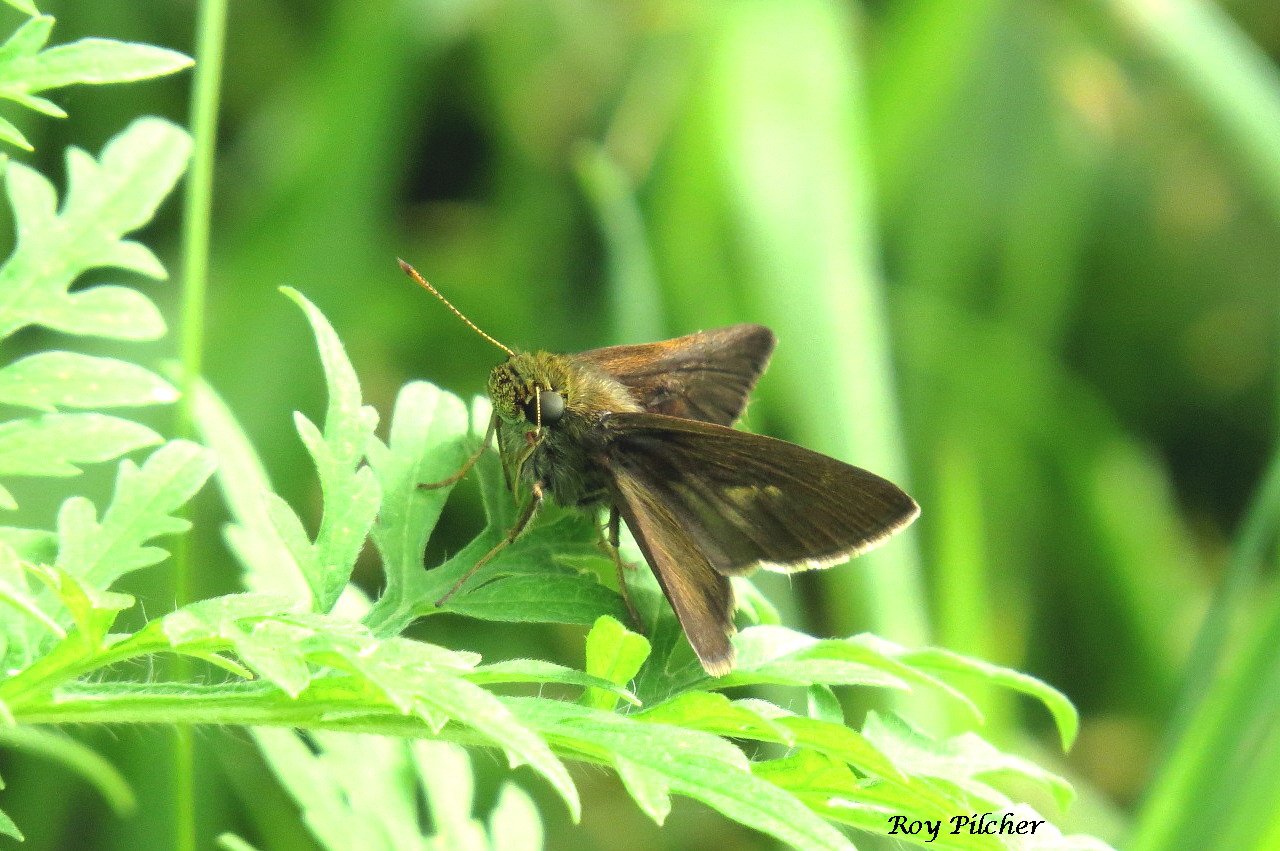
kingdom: Animalia
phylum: Arthropoda
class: Insecta
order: Lepidoptera
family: Hesperiidae
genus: Vernia
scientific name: Vernia verna
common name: Little Glassywing
